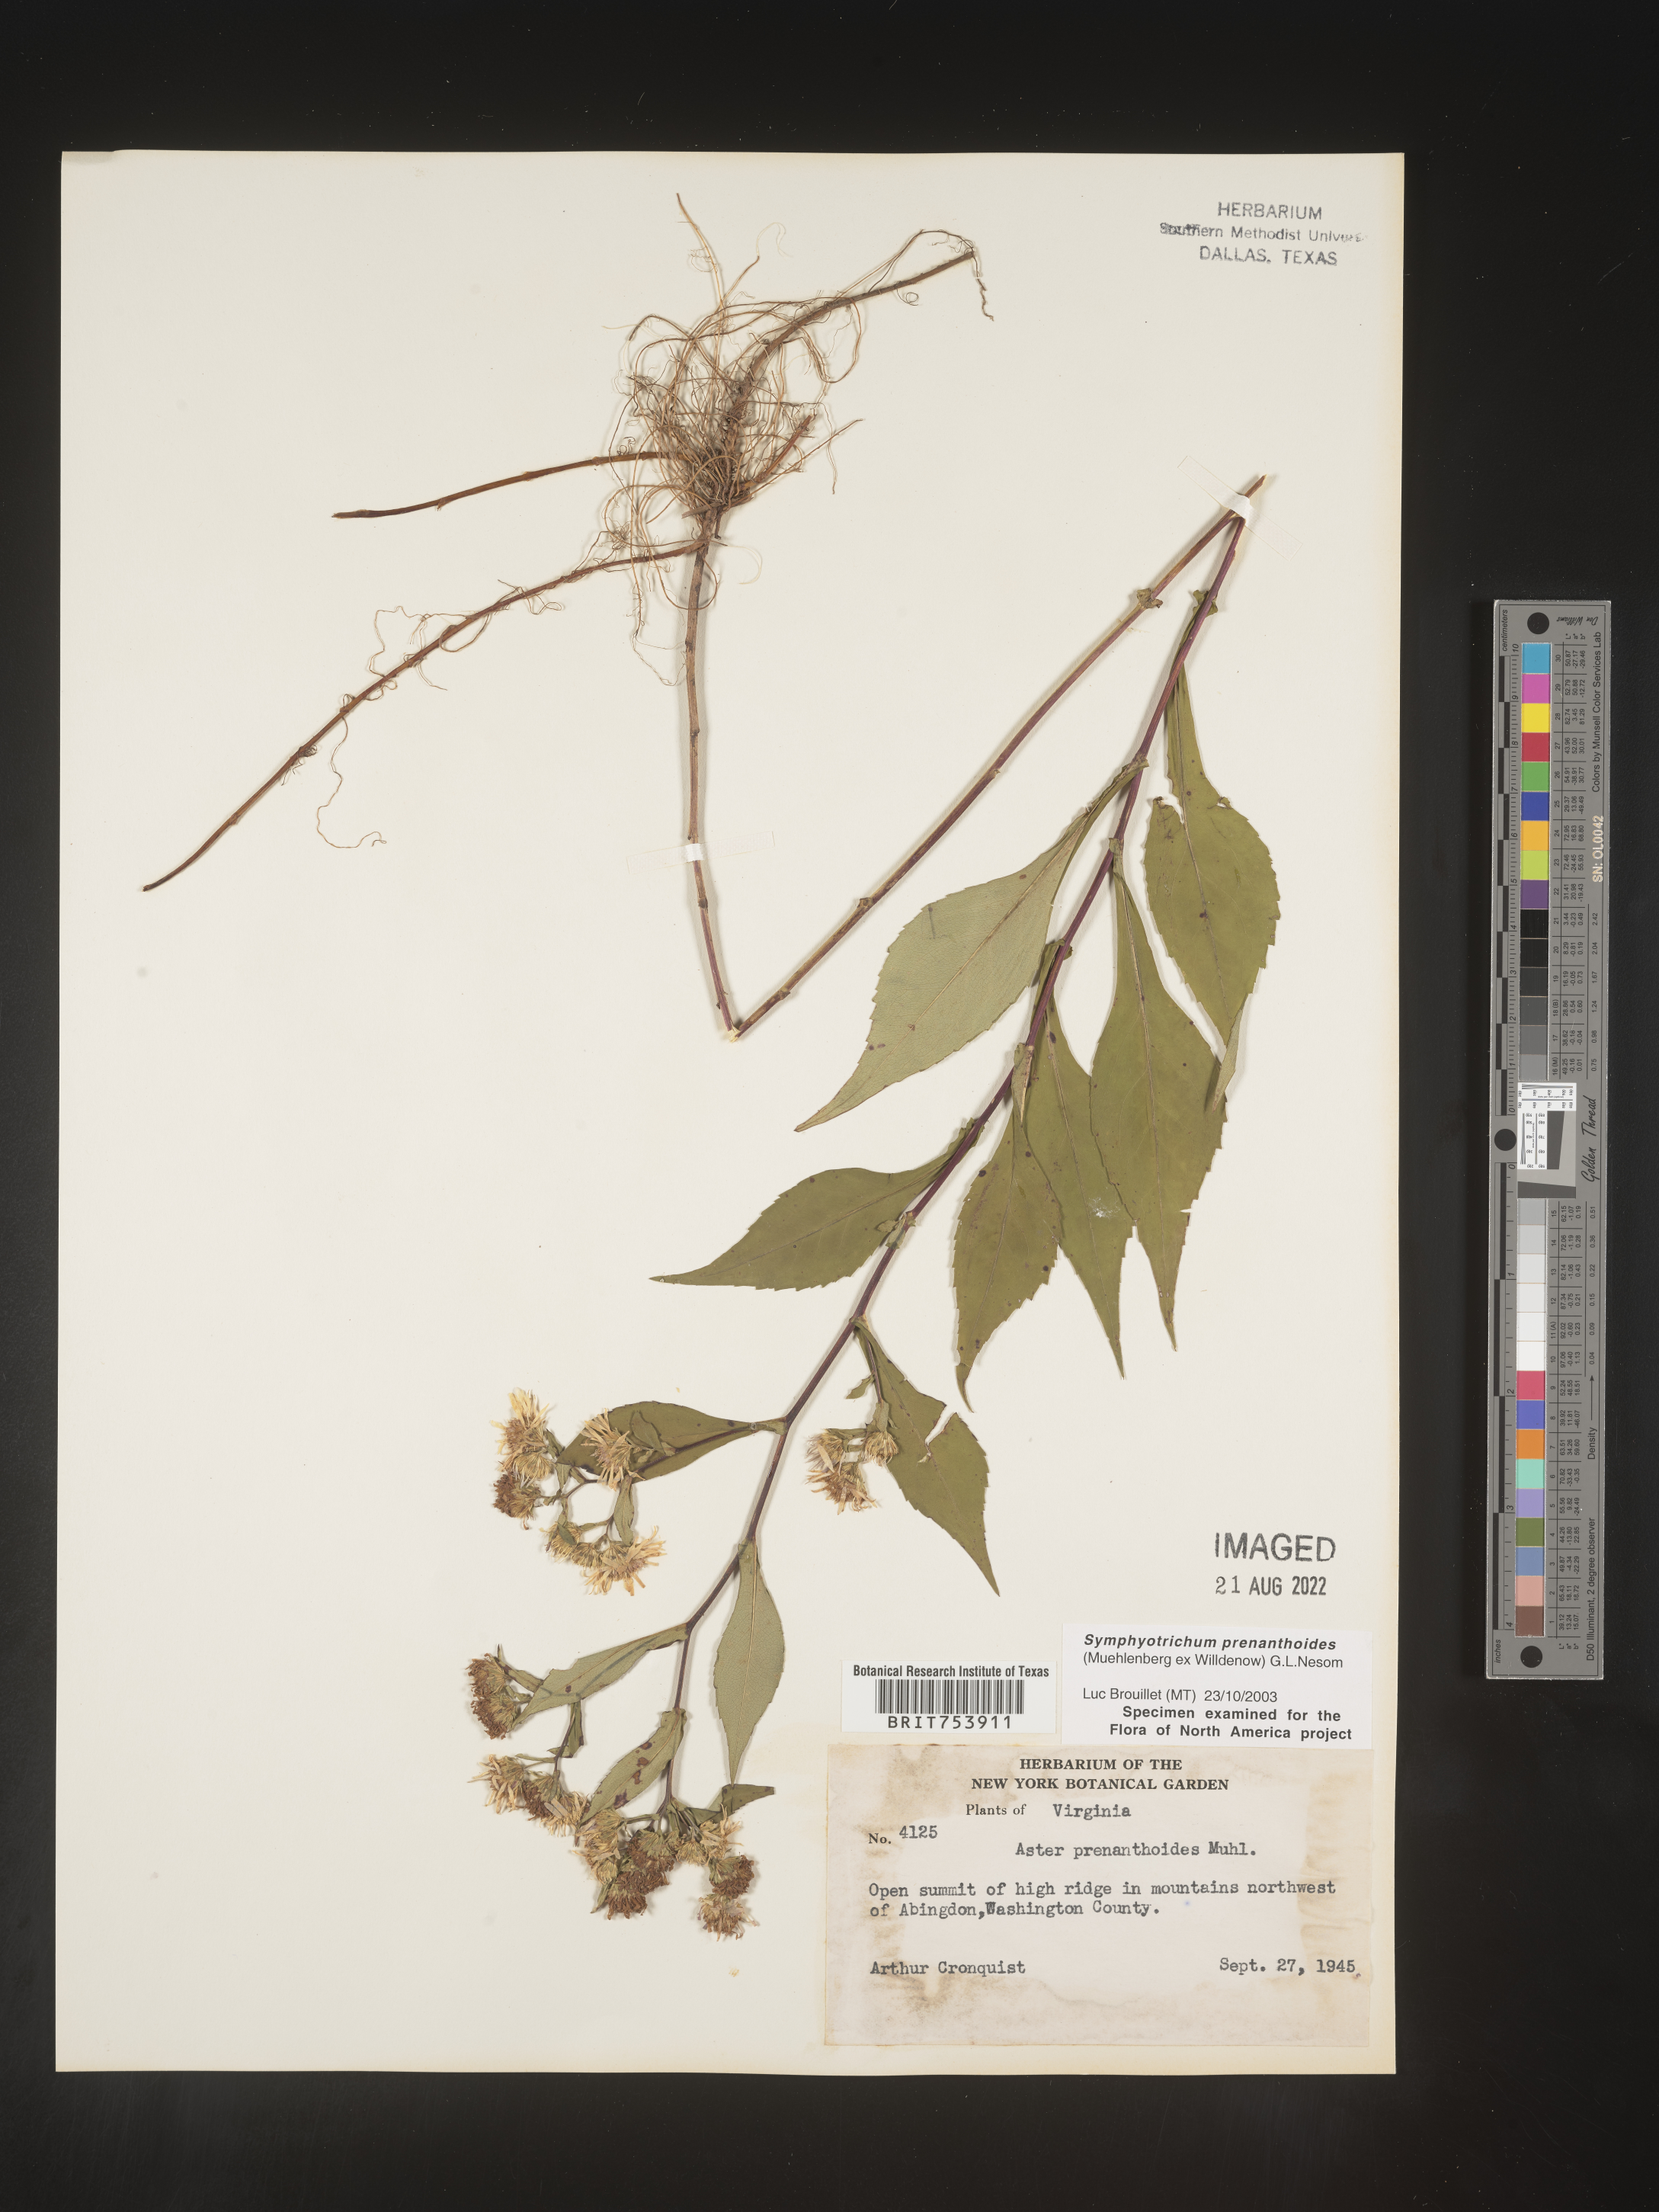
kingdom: Plantae
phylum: Tracheophyta
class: Magnoliopsida
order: Asterales
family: Asteraceae
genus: Symphyotrichum
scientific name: Symphyotrichum prenanthoides
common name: Crooked-stem aster
